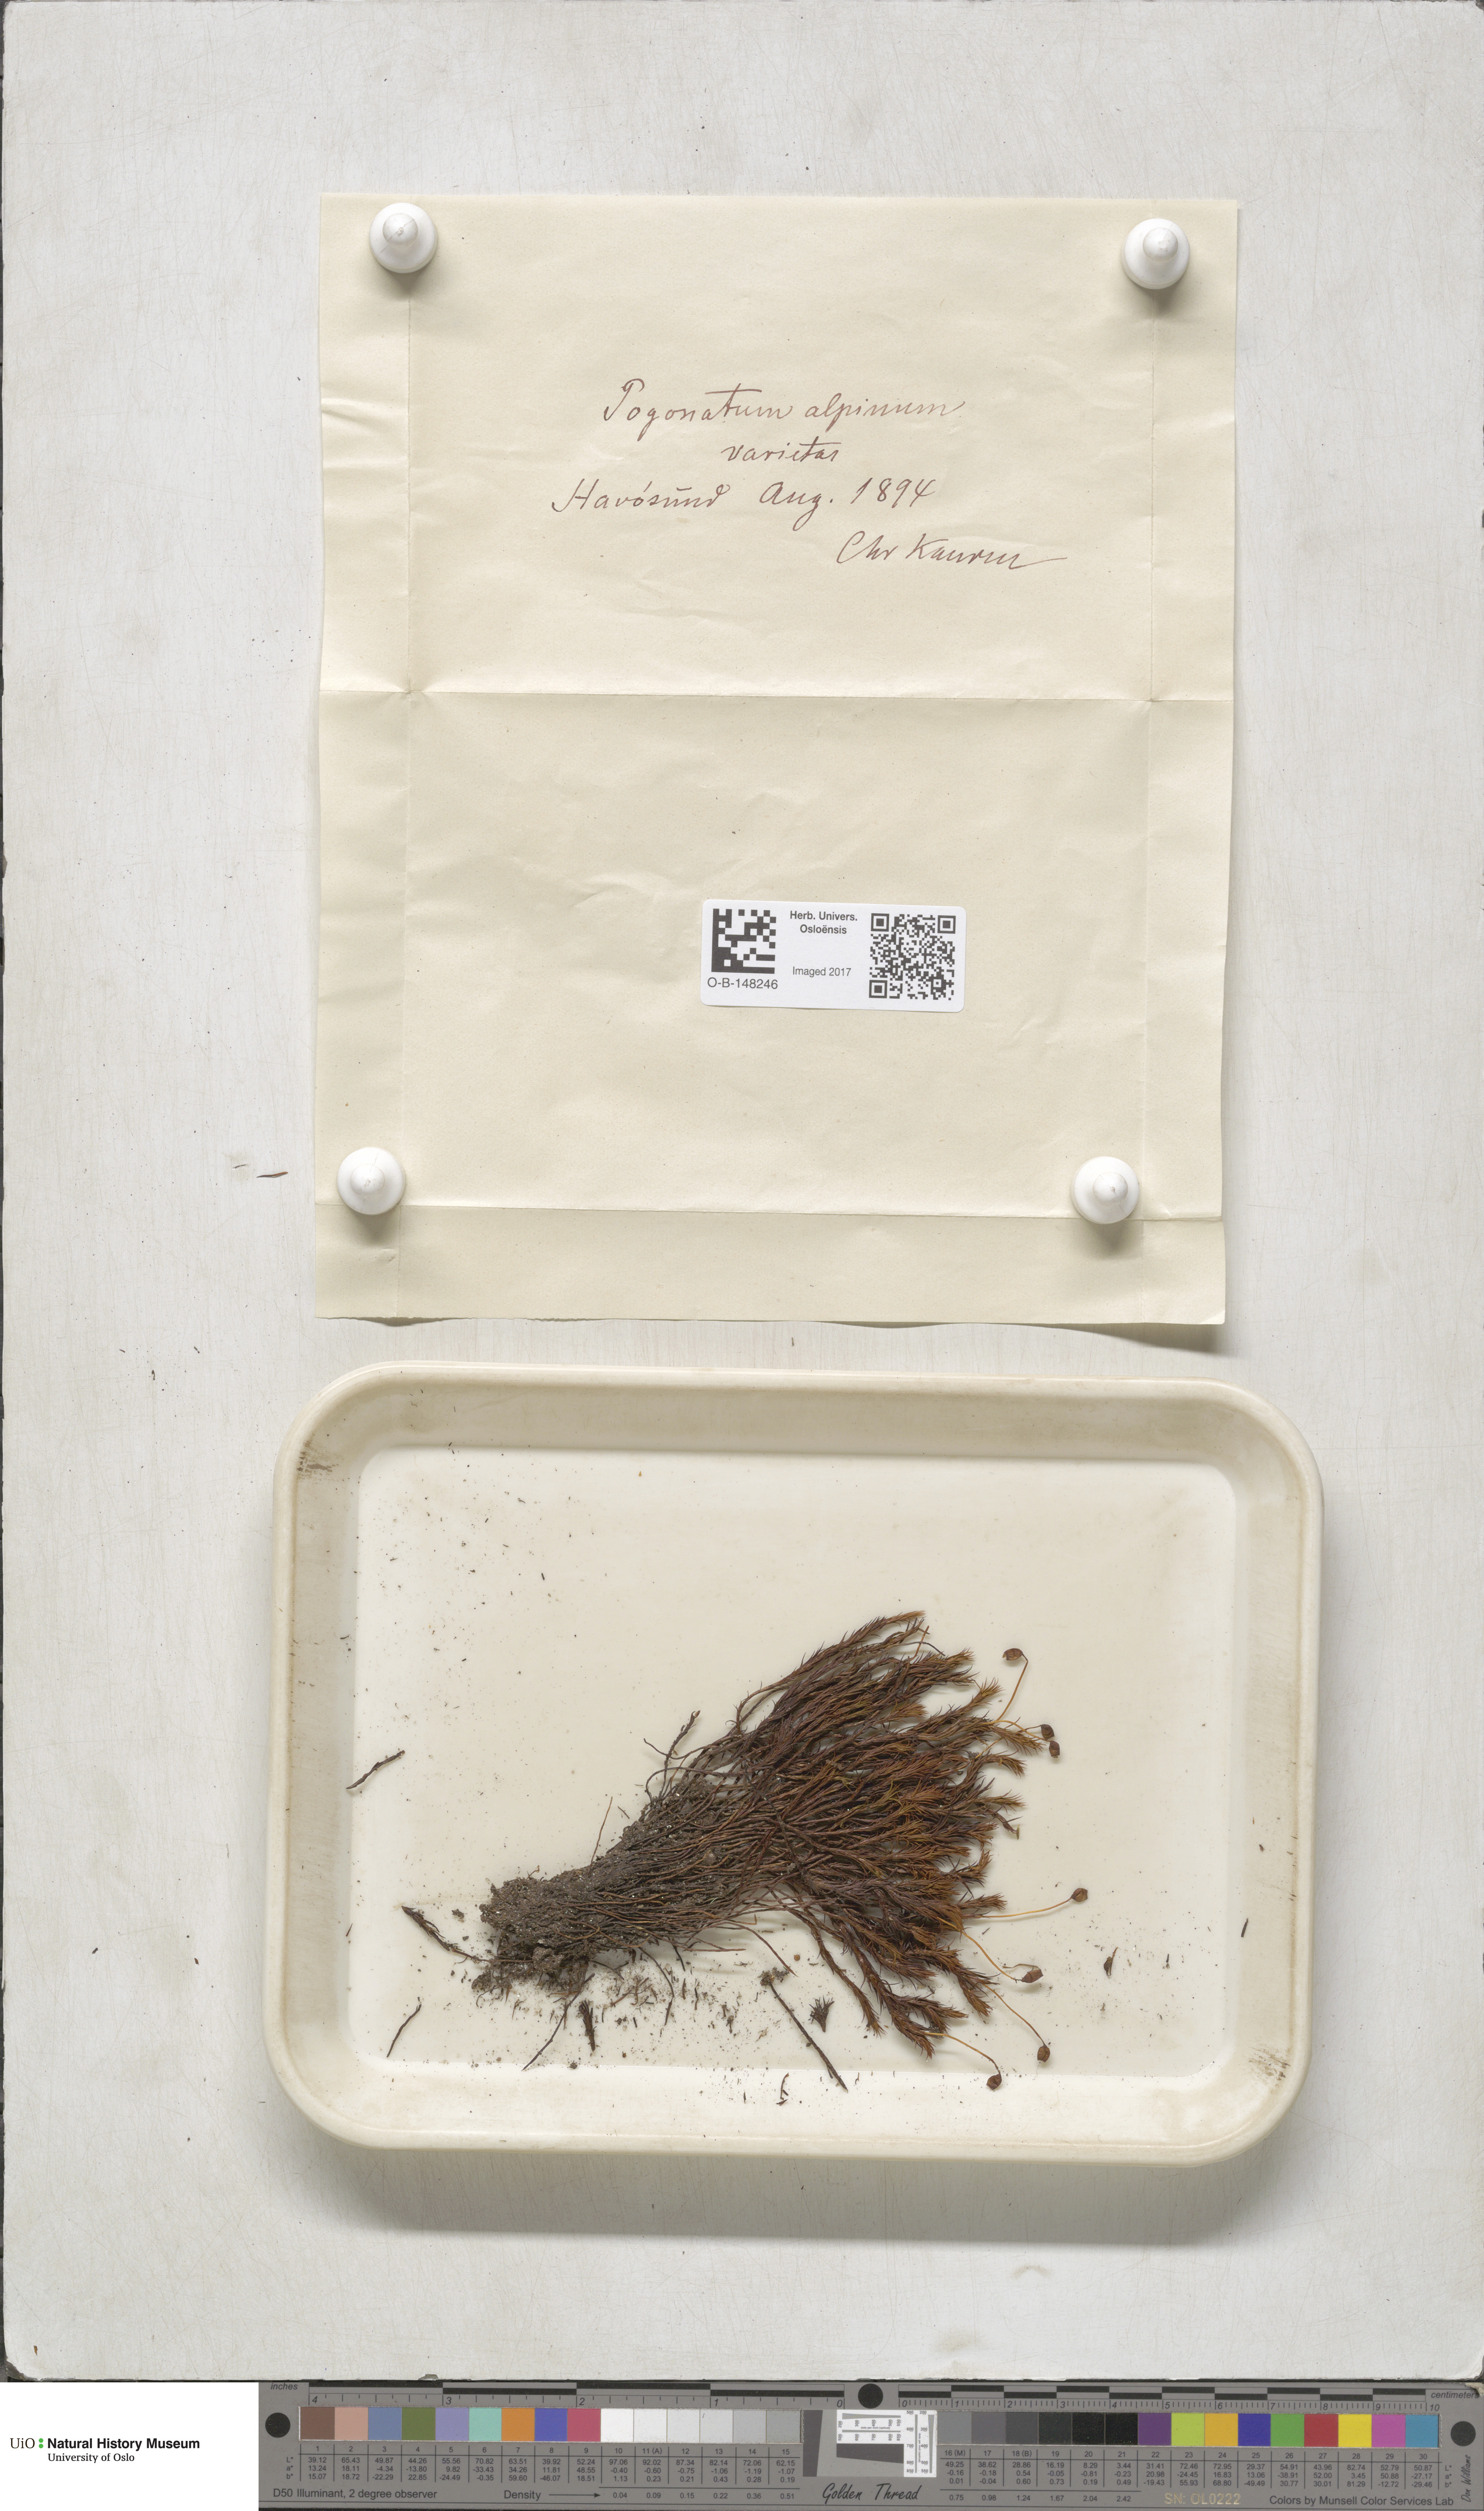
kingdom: Plantae
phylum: Bryophyta
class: Polytrichopsida
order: Polytrichales
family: Polytrichaceae
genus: Polytrichastrum
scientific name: Polytrichastrum alpinum
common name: Alpine haircap
